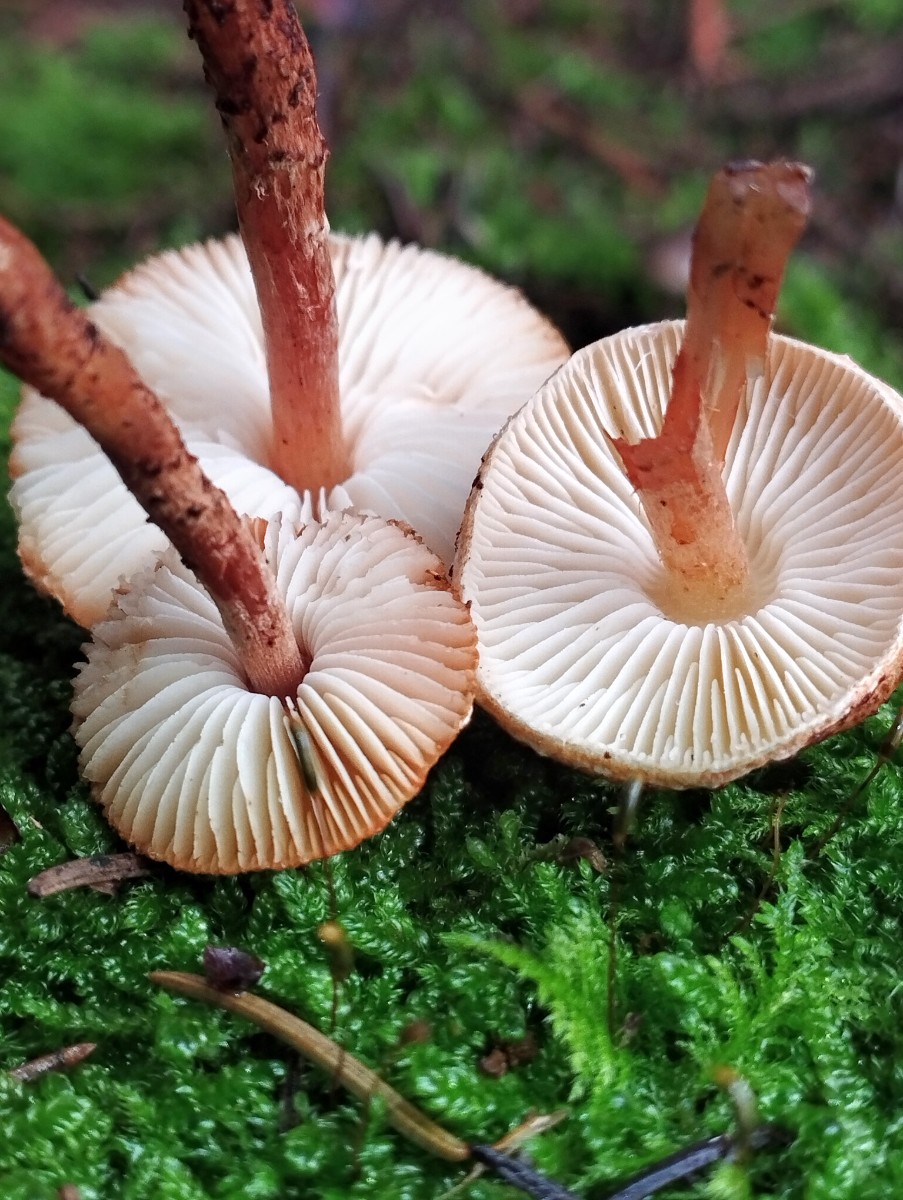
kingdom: Fungi
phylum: Basidiomycota
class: Agaricomycetes
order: Agaricales
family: Agaricaceae
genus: Lepiota
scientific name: Lepiota castanea
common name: kastaniebrun parasolhat
